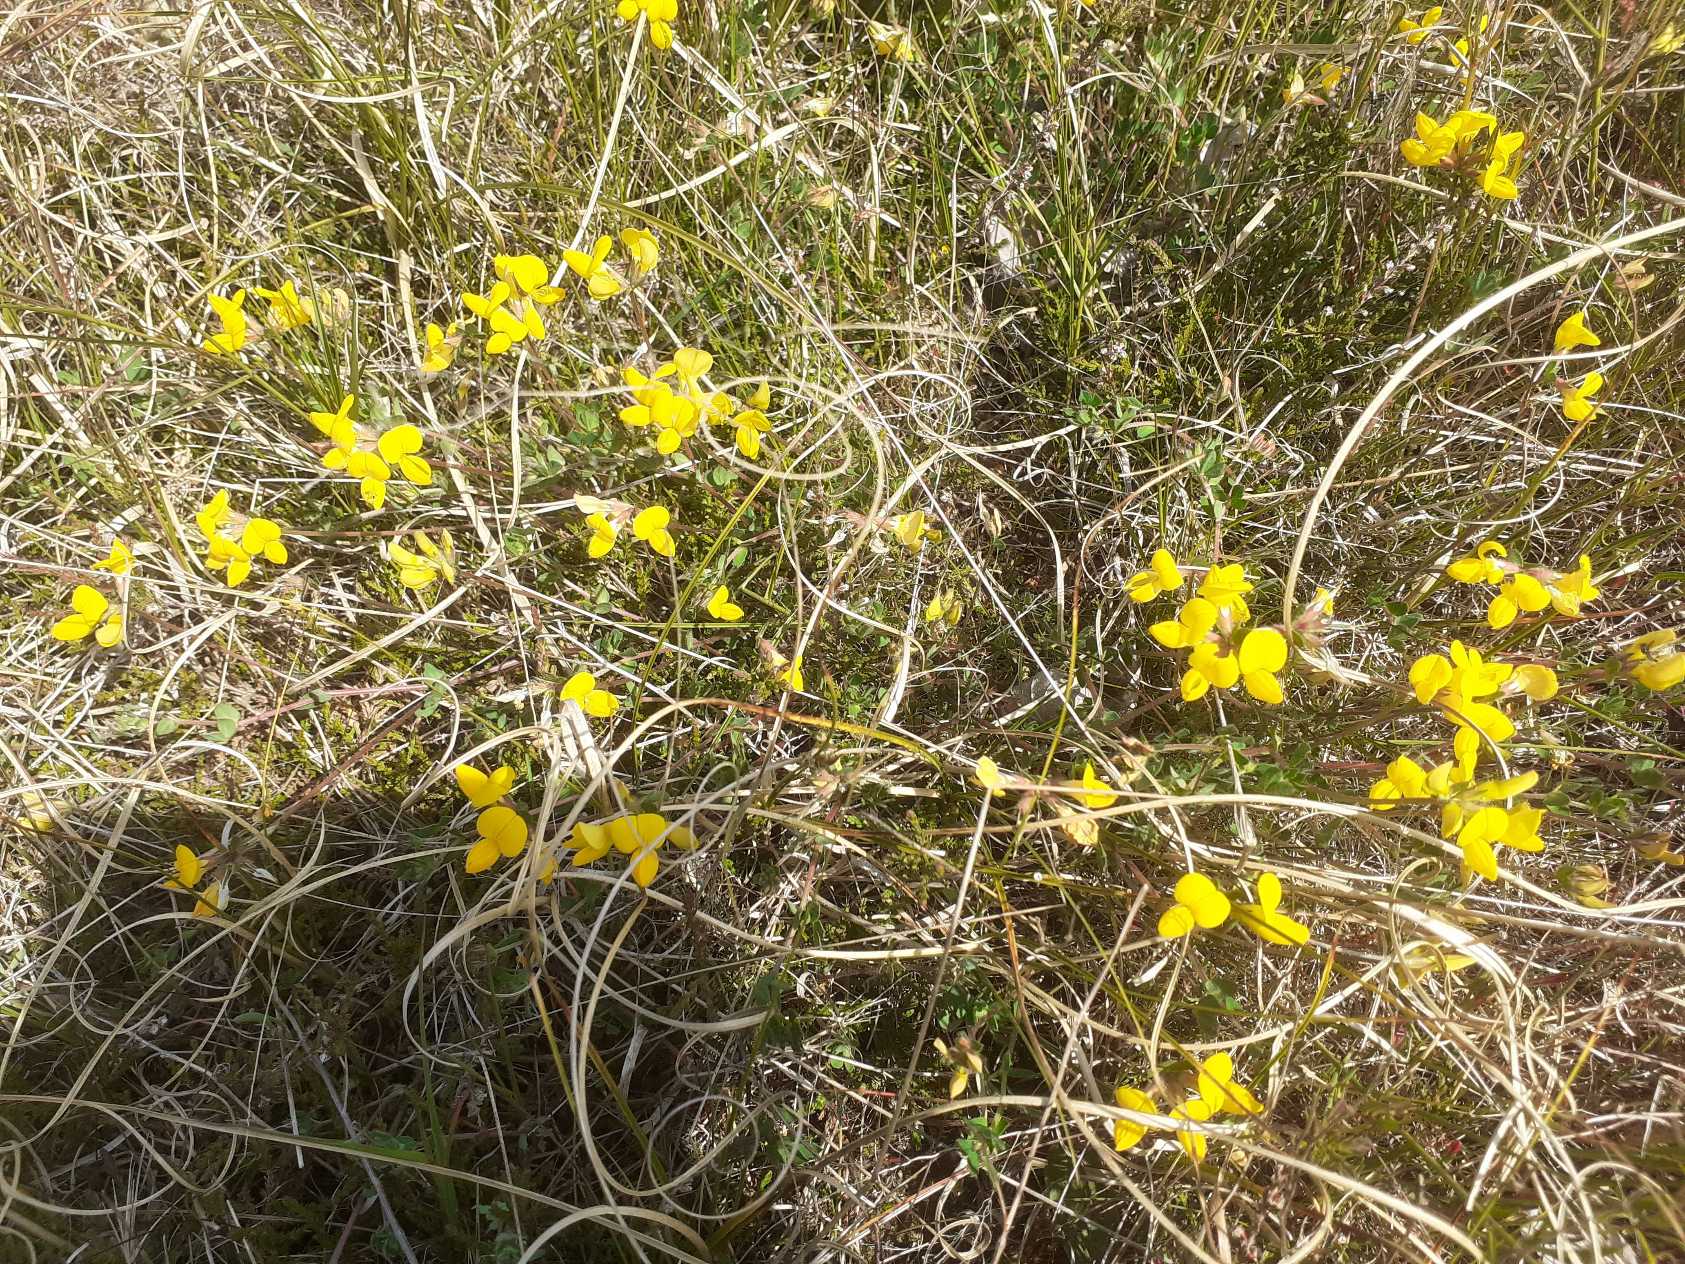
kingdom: Plantae
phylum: Tracheophyta
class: Magnoliopsida
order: Fabales
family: Fabaceae
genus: Lotus
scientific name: Lotus corniculatus
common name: Almindelig kællingetand
